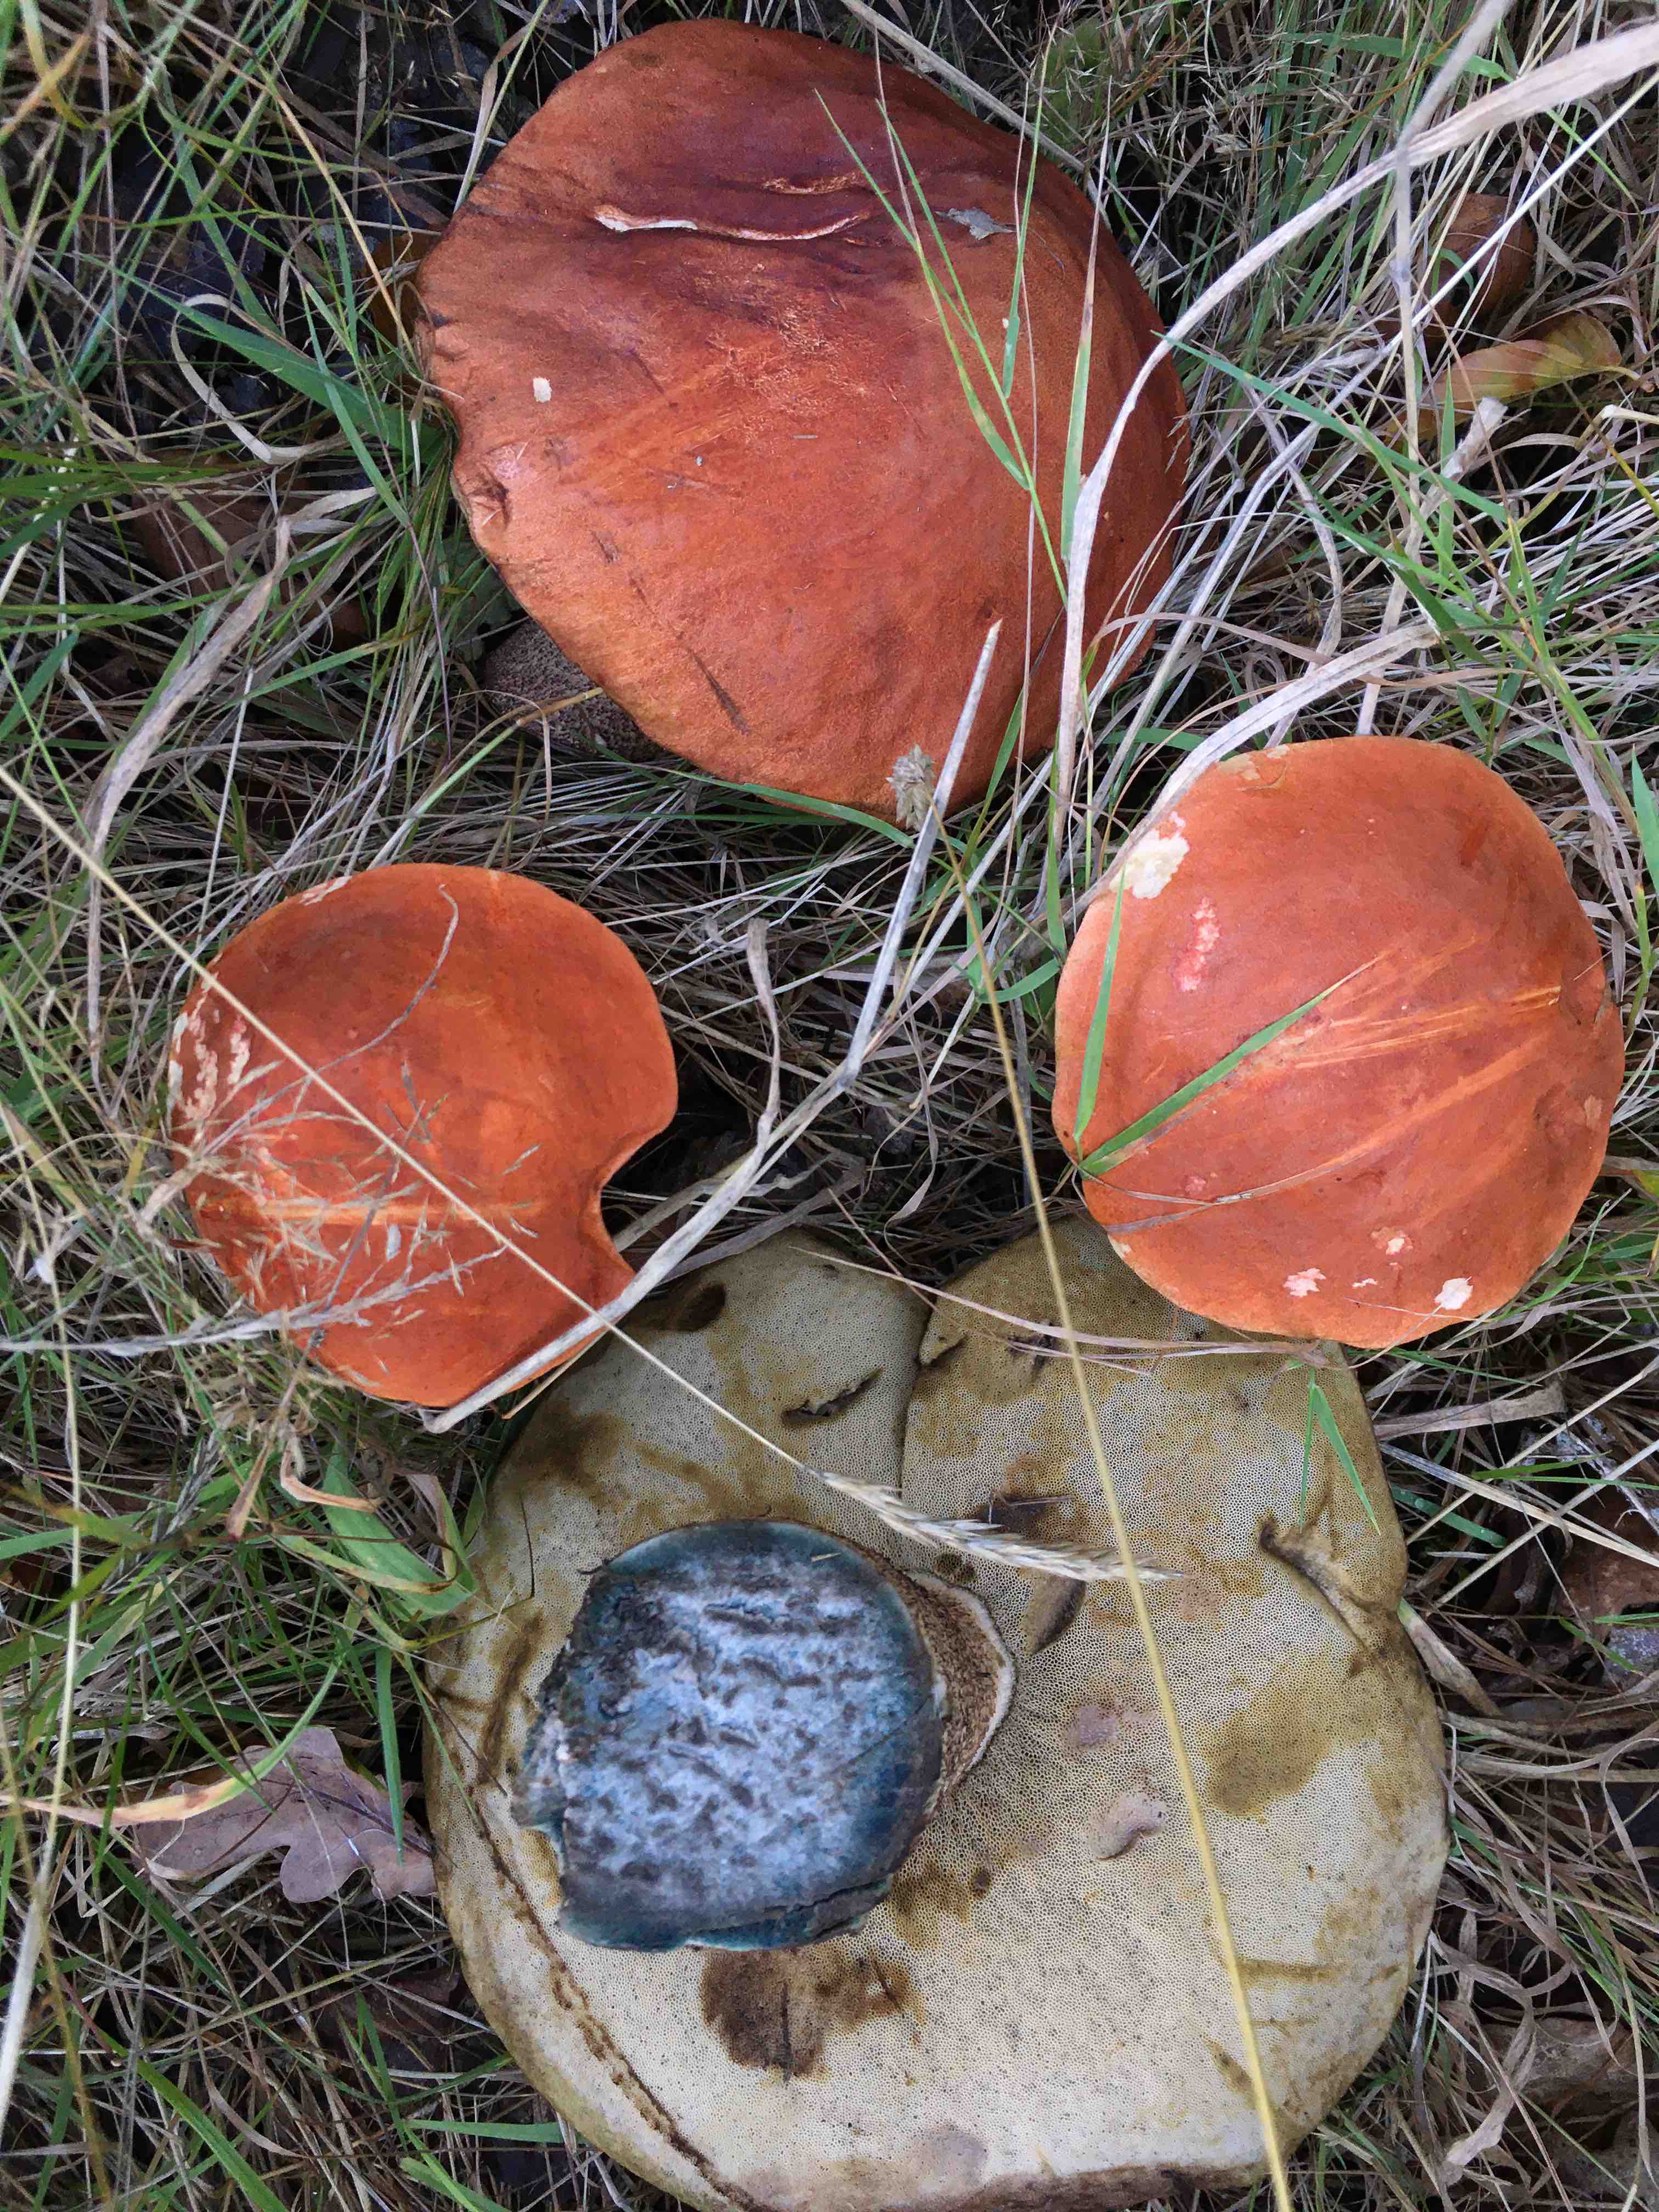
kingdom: Fungi
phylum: Basidiomycota
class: Agaricomycetes
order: Boletales
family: Boletaceae
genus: Leccinum
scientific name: Leccinum aurantiacum
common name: rustrød skælrørhat
